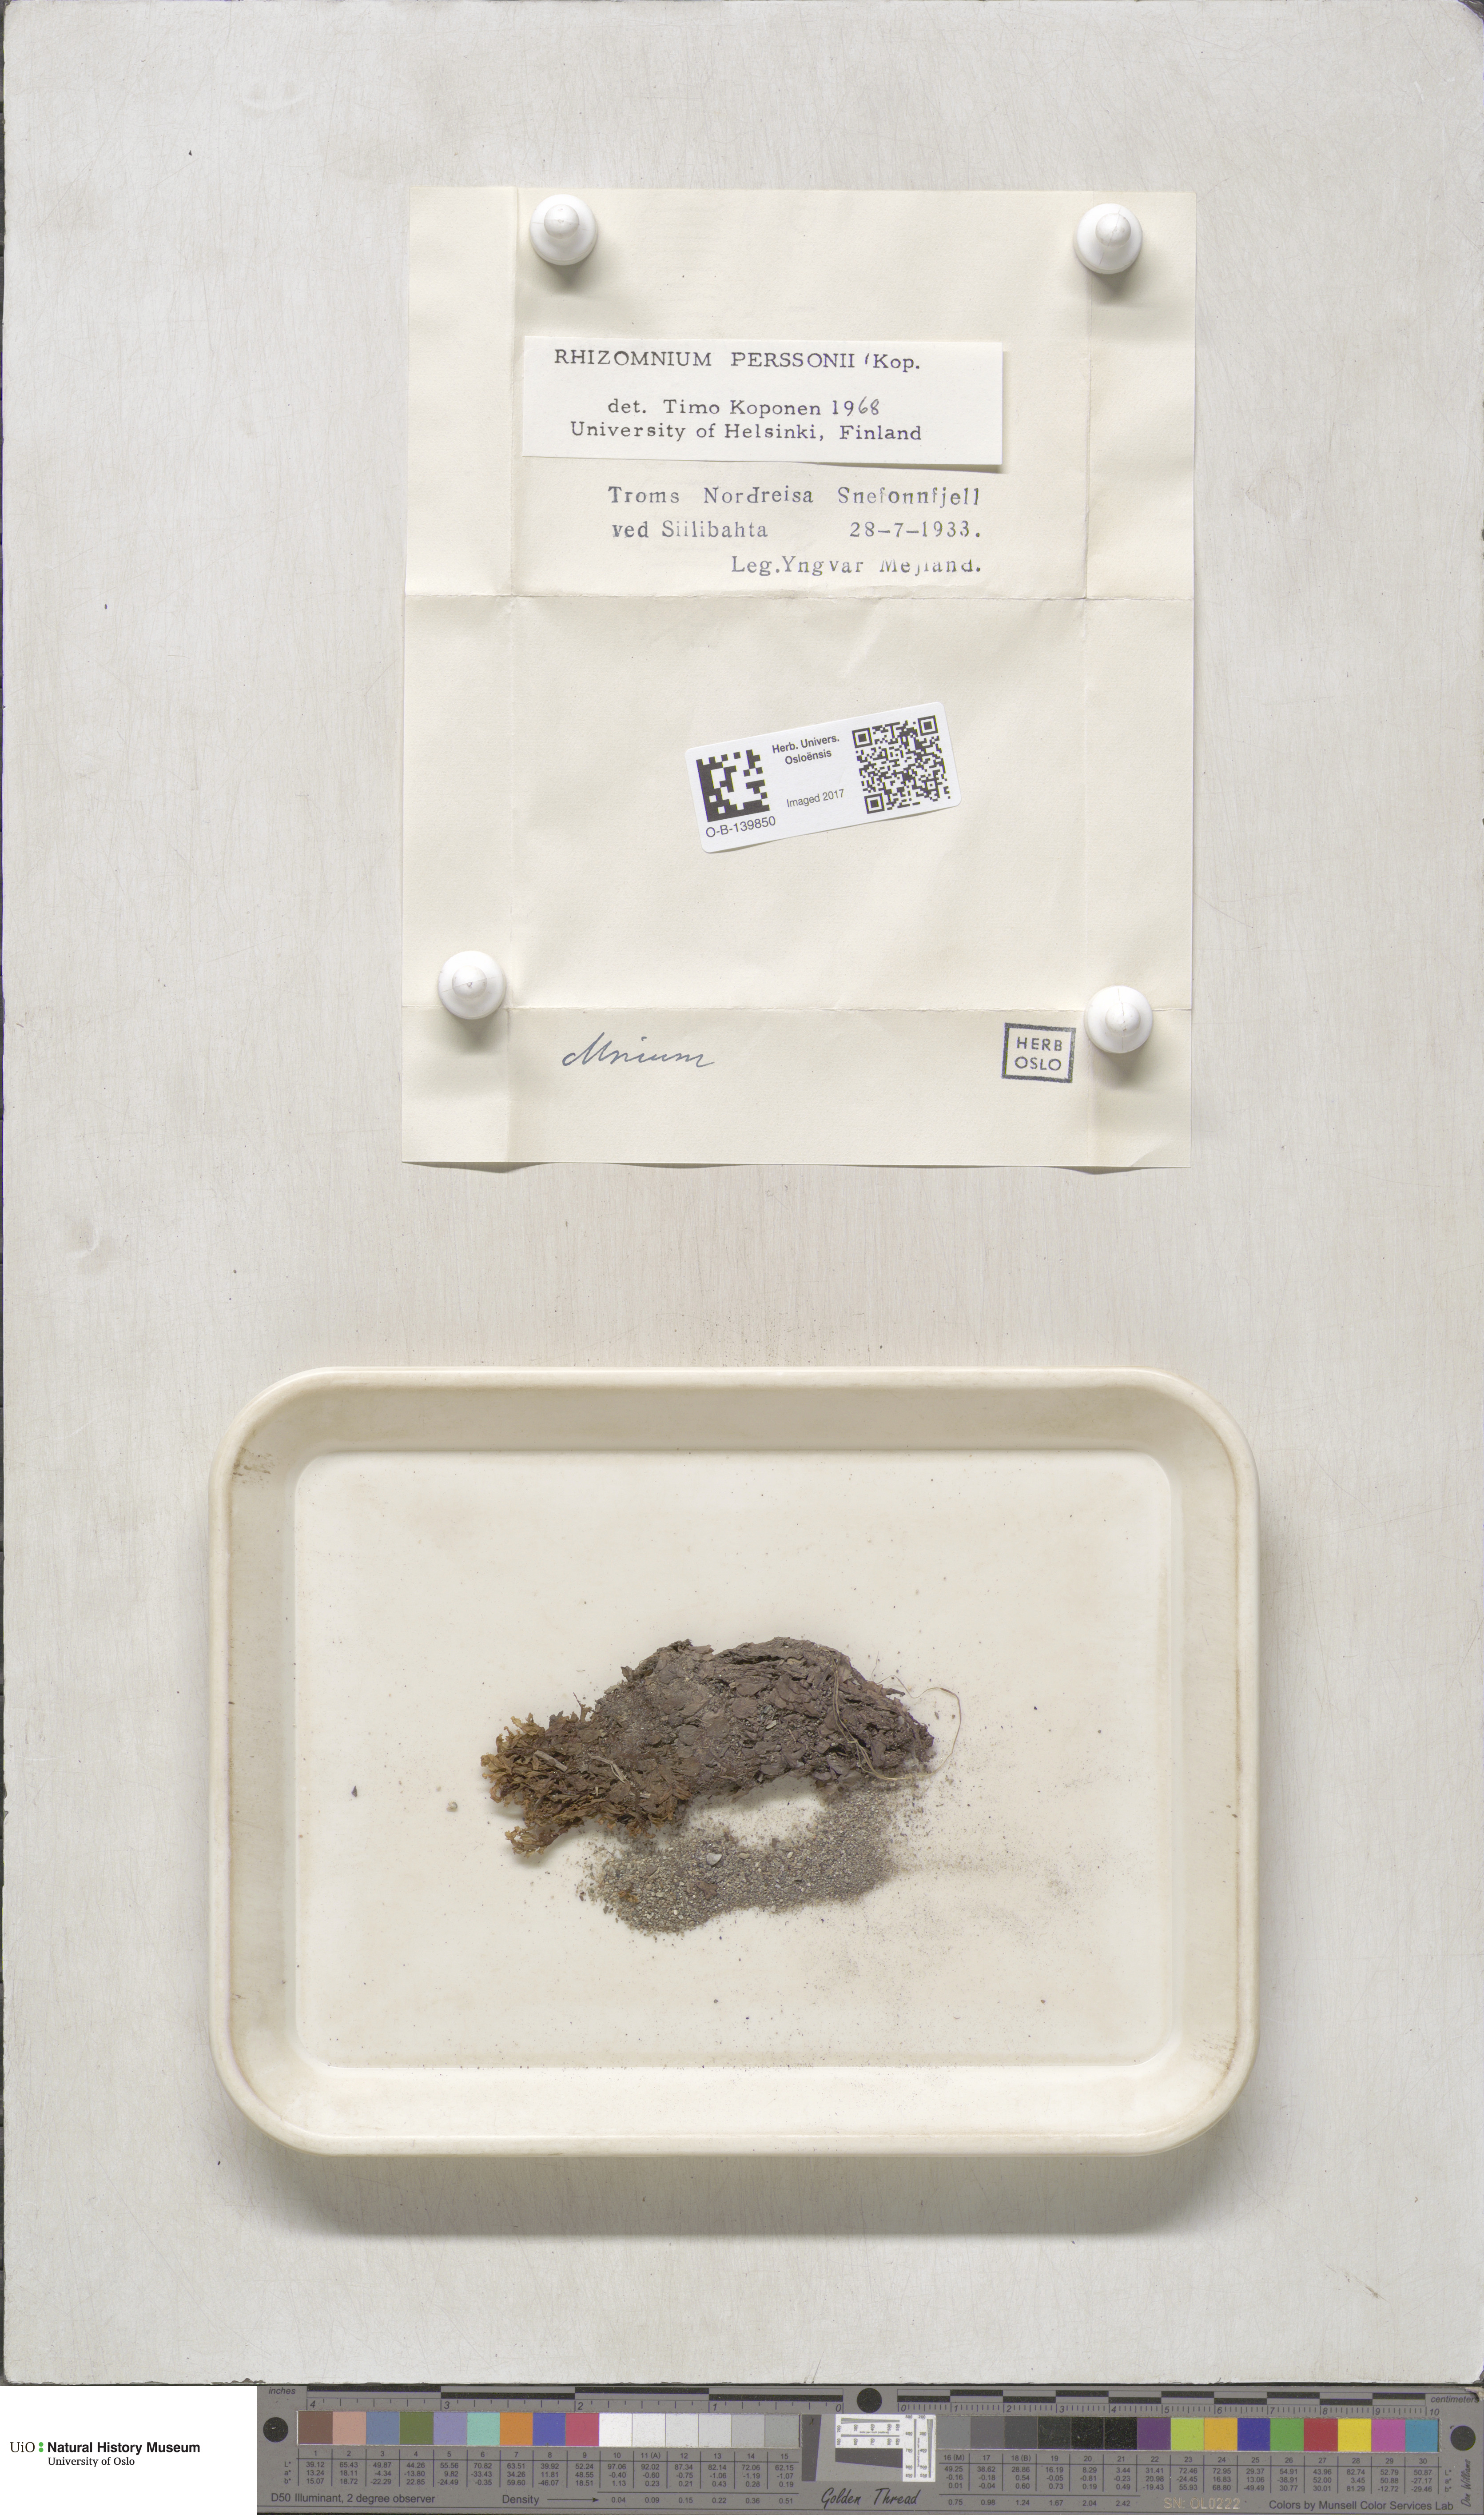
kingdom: Plantae
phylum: Bryophyta
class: Bryopsida
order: Bryales
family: Mniaceae
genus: Rhizomnium
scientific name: Rhizomnium magnifolium
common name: Large-leaved leafy moss
